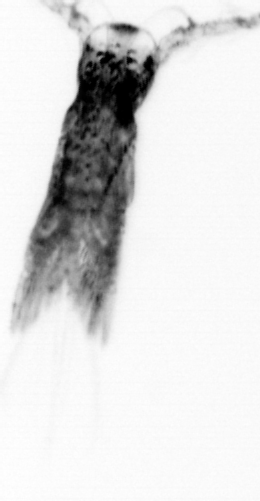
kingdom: Animalia
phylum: Arthropoda
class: Copepoda
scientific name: Copepoda
